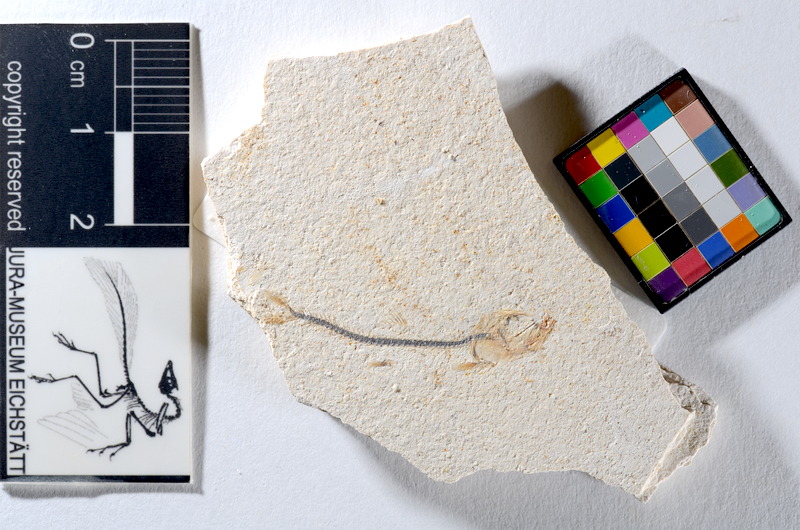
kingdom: Animalia
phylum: Chordata
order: Salmoniformes
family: Orthogonikleithridae
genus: Orthogonikleithrus
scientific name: Orthogonikleithrus hoelli
